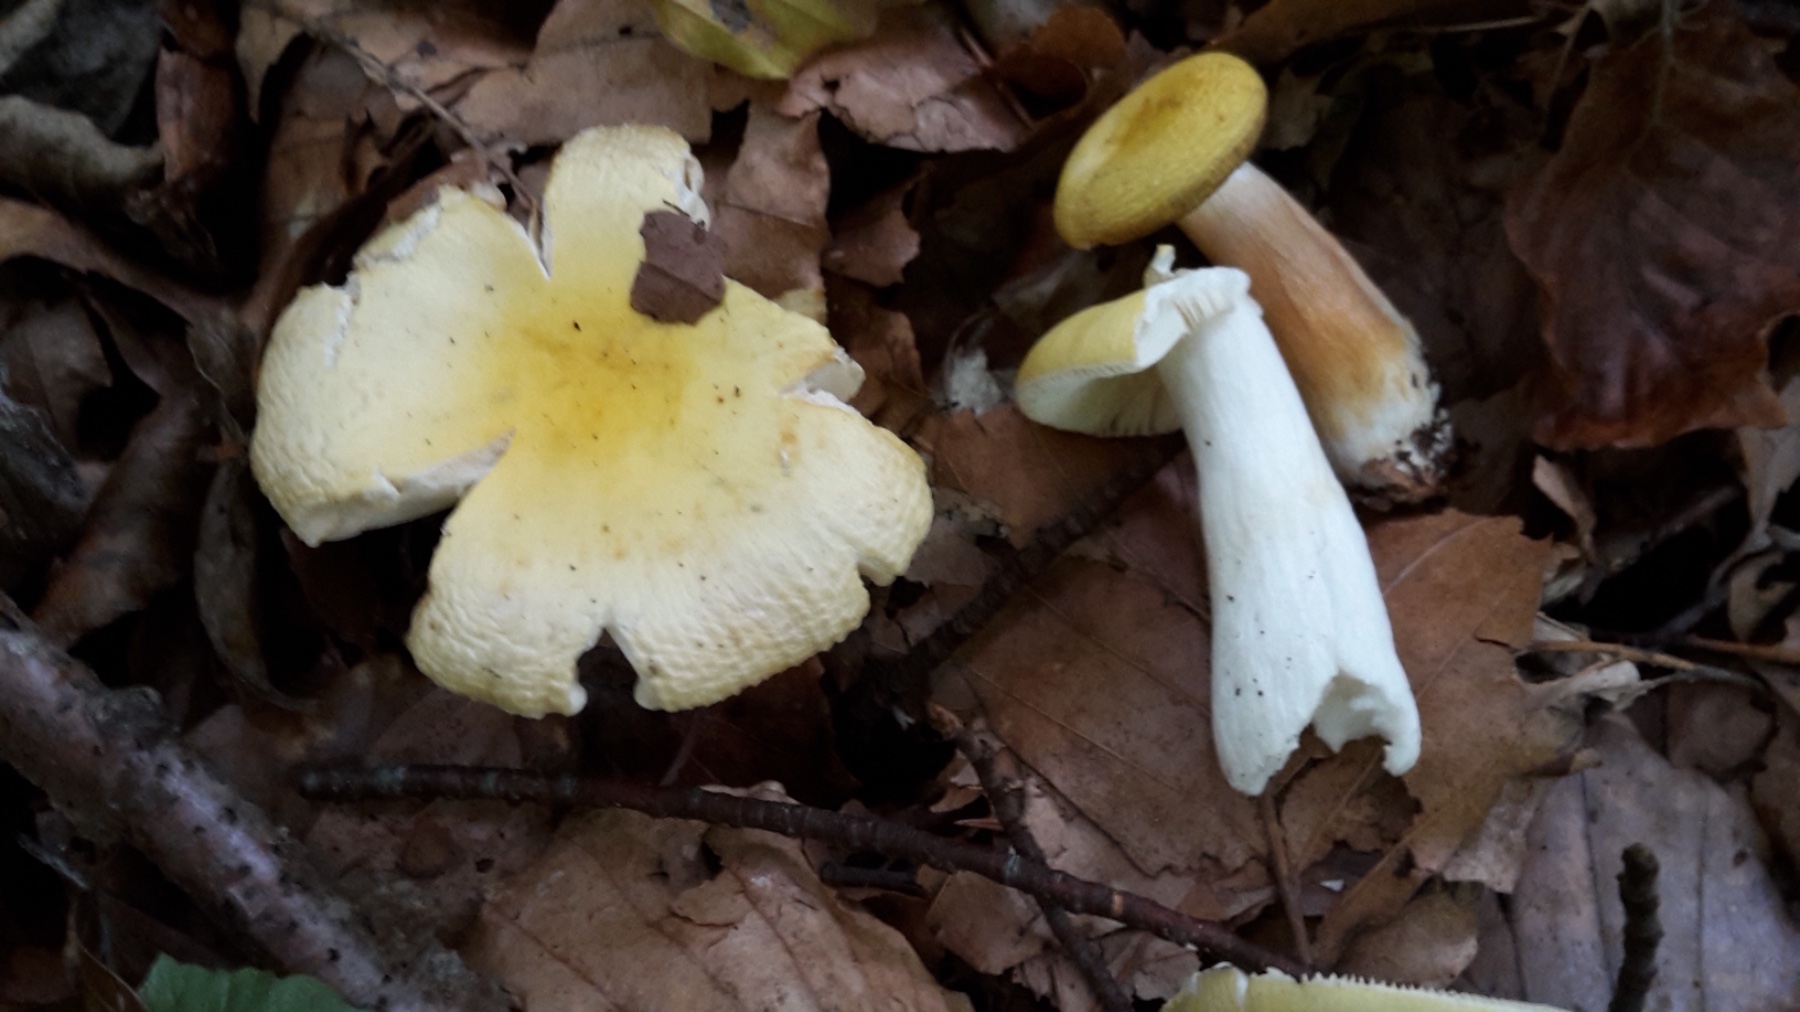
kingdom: Fungi
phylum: Basidiomycota
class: Agaricomycetes
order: Russulales
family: Russulaceae
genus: Russula
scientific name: Russula solaris
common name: sol-skørhat
